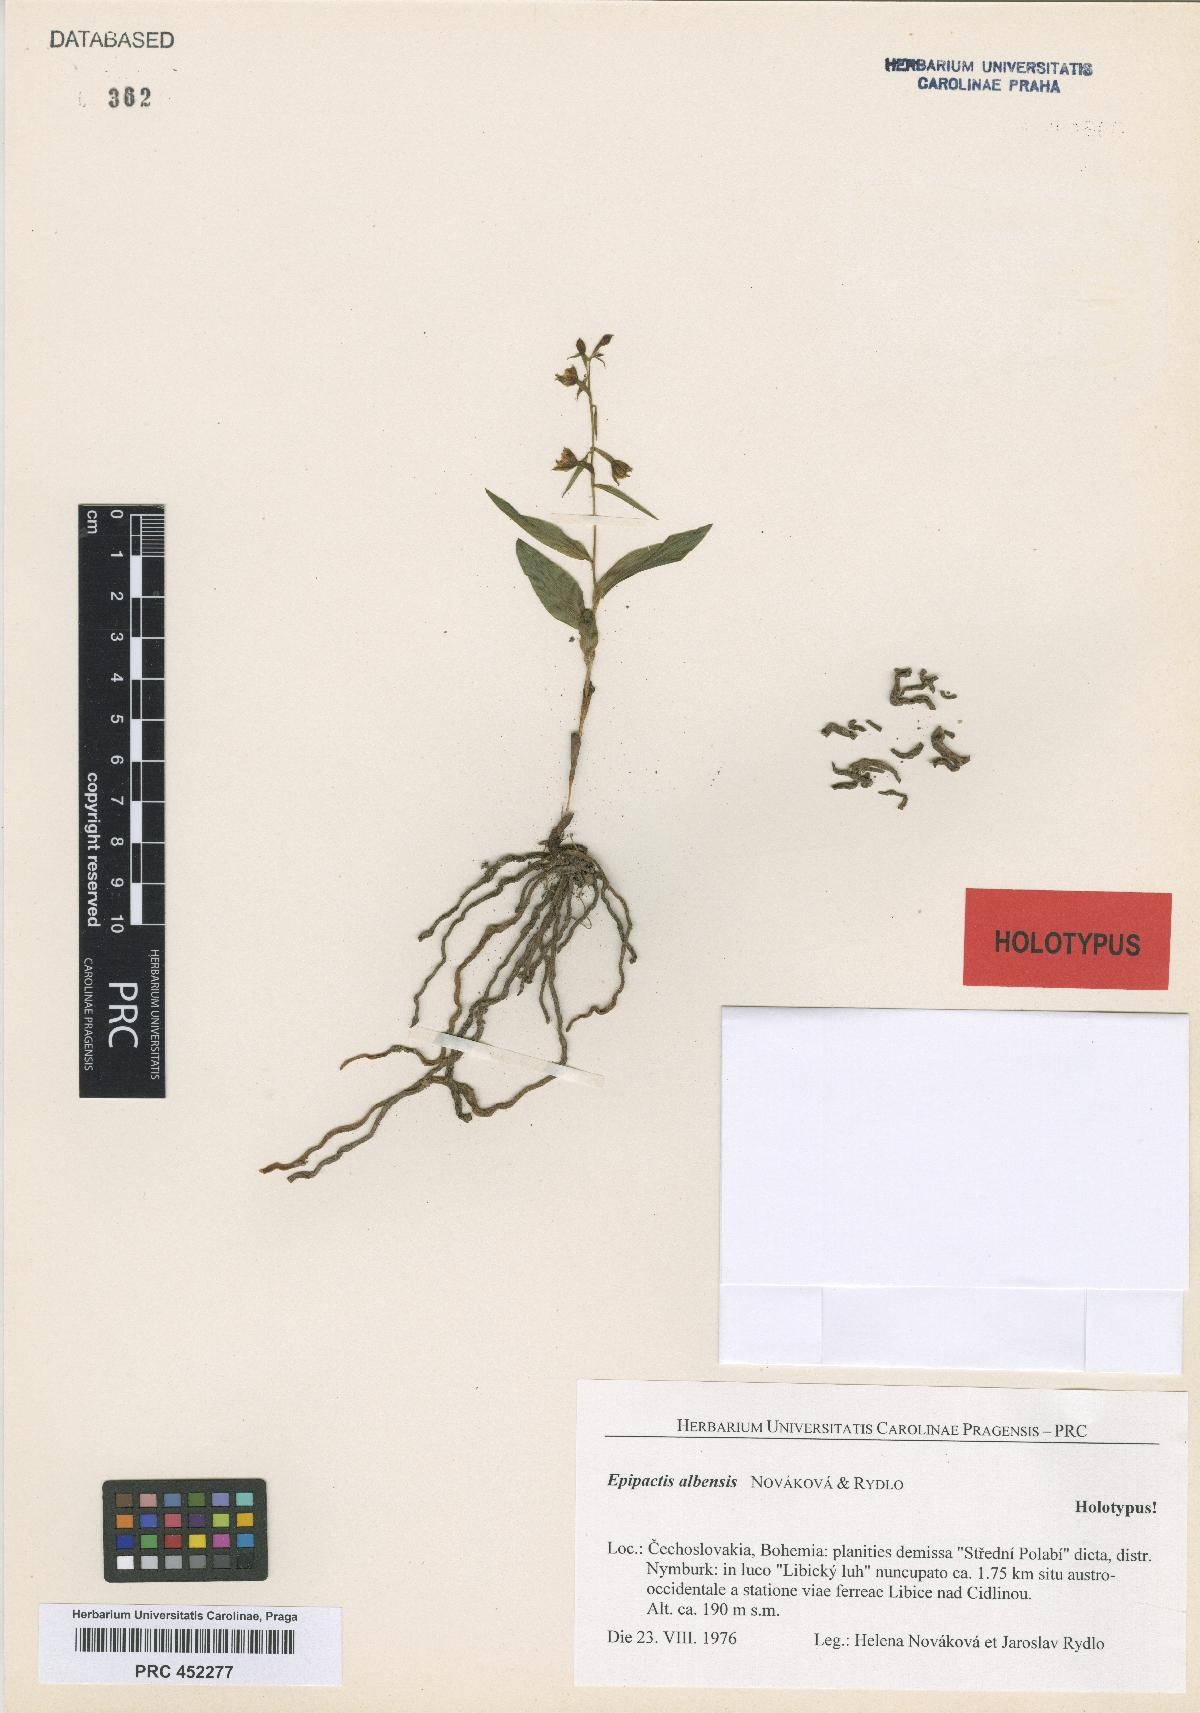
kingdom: Plantae
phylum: Tracheophyta
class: Liliopsida
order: Asparagales
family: Orchidaceae
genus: Epipactis
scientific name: Epipactis albensis
